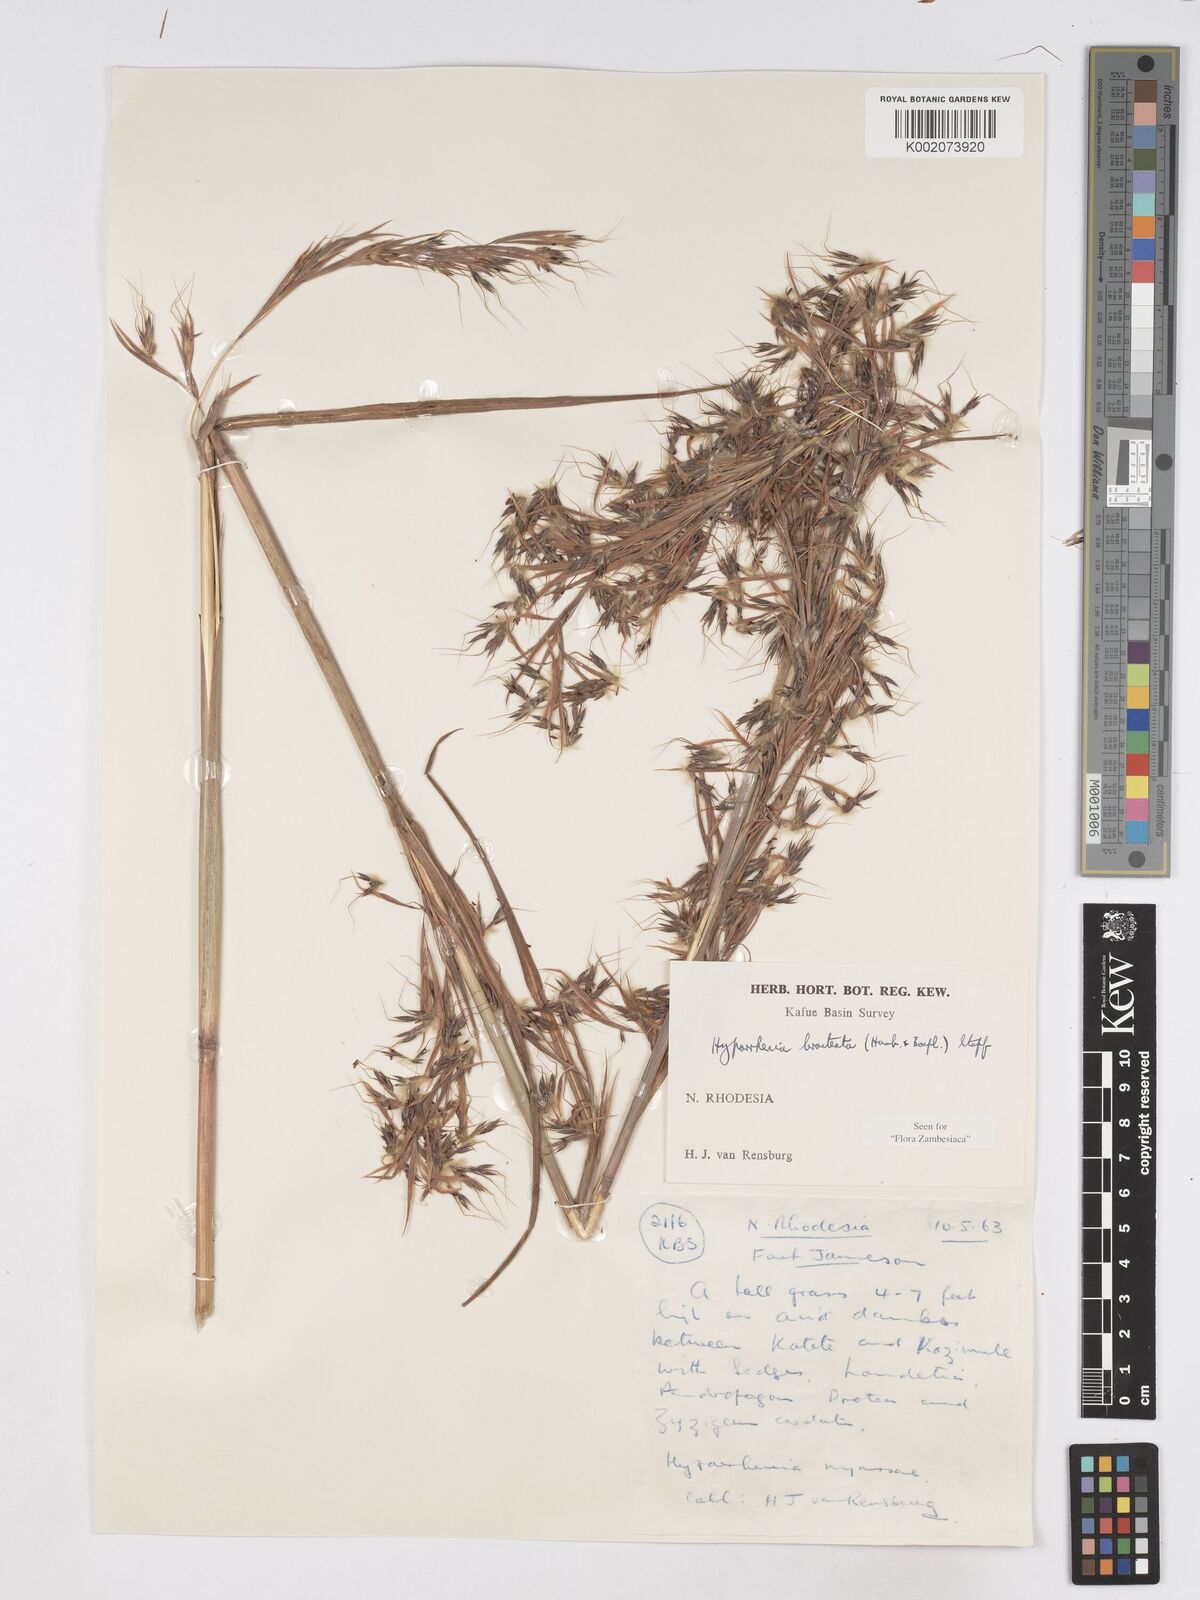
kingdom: Plantae
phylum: Tracheophyta
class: Liliopsida
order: Poales
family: Poaceae
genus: Hyparrhenia
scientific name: Hyparrhenia bracteata
